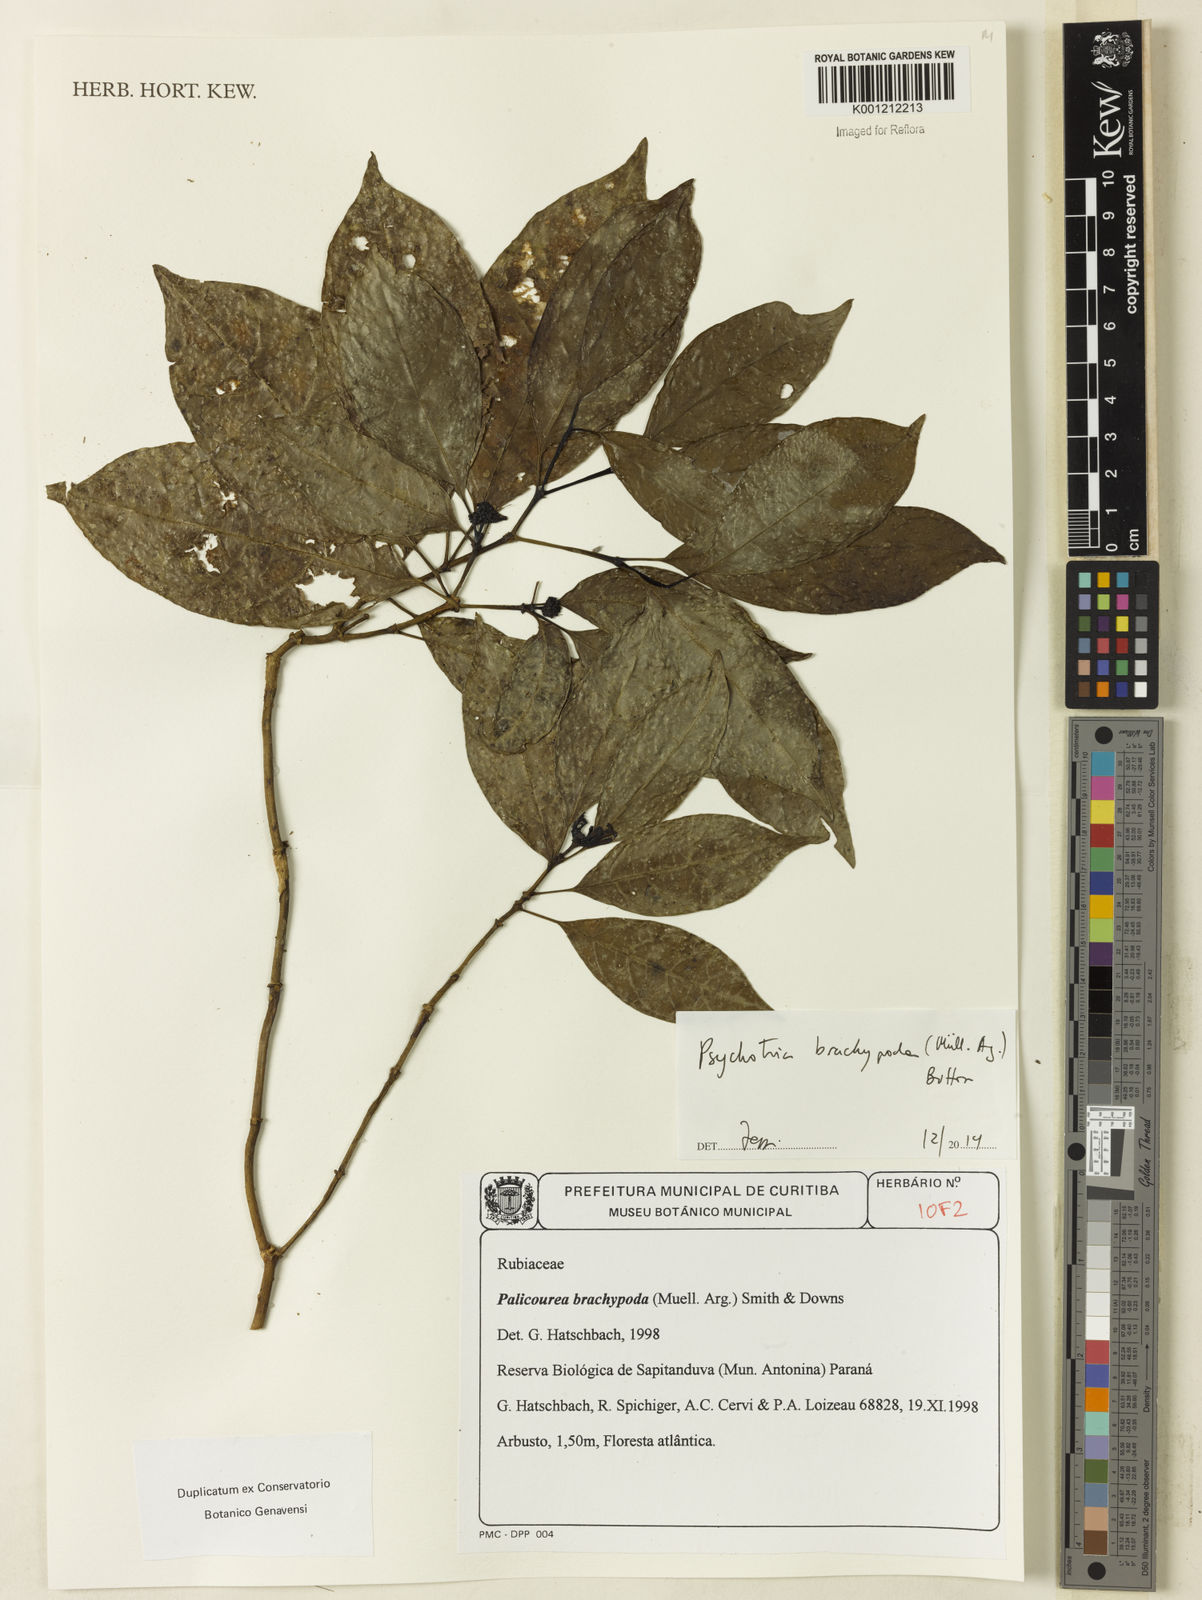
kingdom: Plantae
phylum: Tracheophyta
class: Magnoliopsida
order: Gentianales
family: Rubiaceae
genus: Psychotria
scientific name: Psychotria
